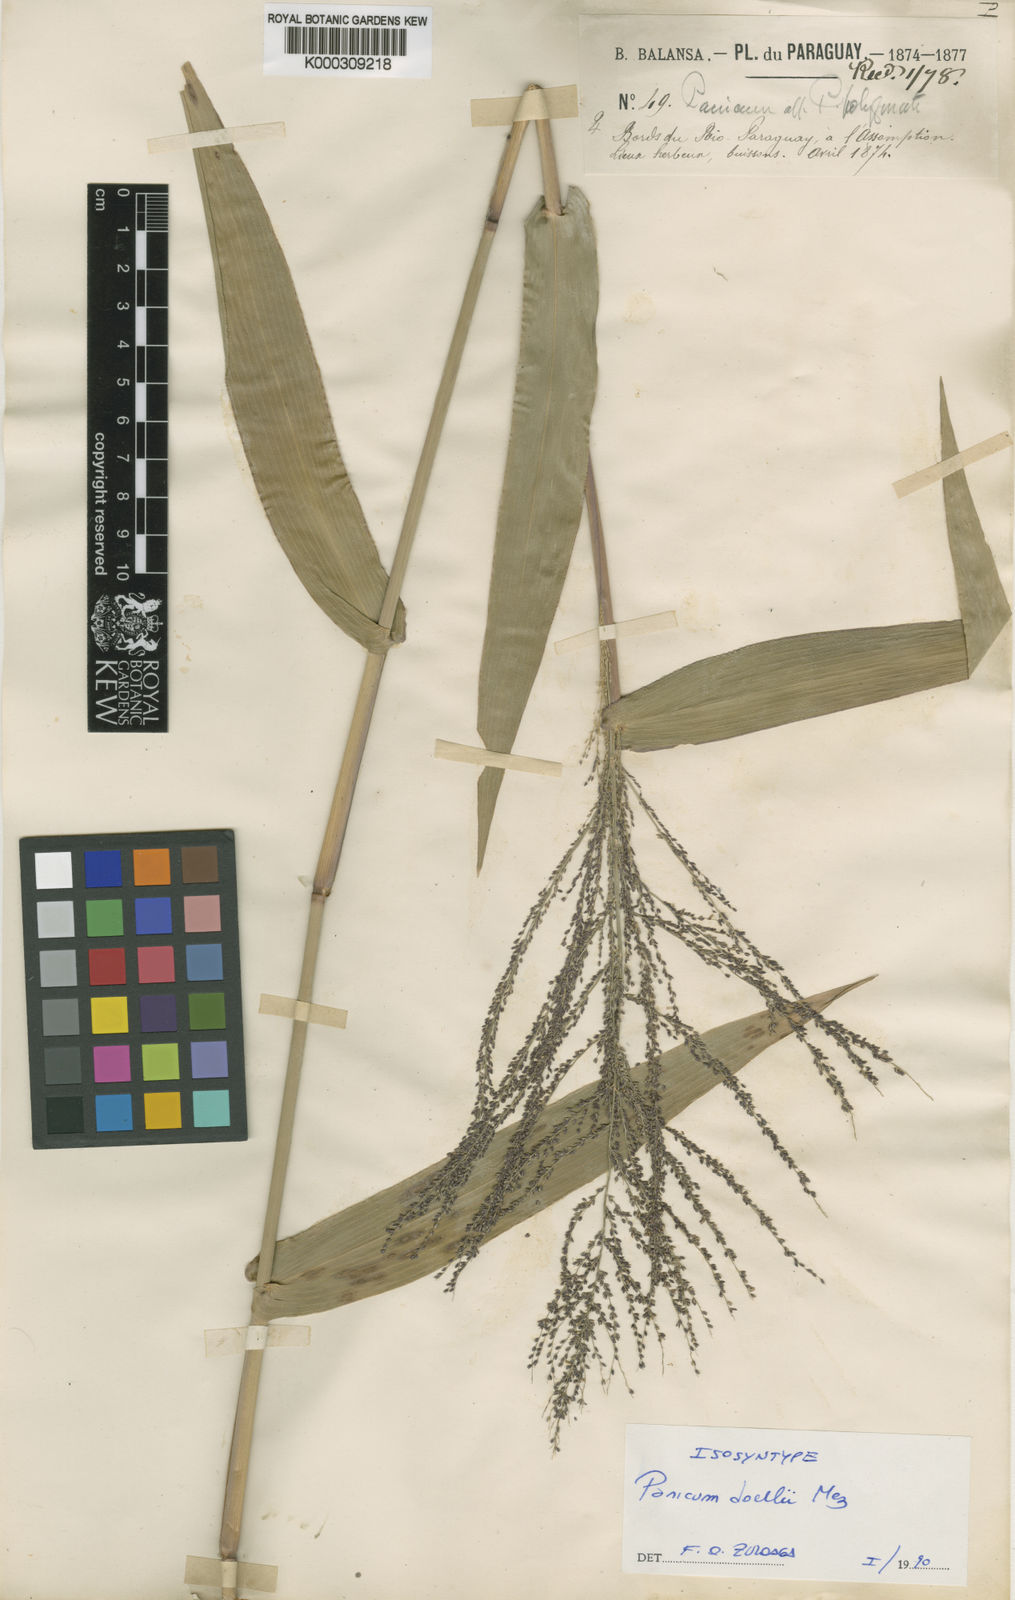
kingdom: Plantae
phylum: Tracheophyta
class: Liliopsida
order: Poales
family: Poaceae
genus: Rugoloa
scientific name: Rugoloa hylaeica
